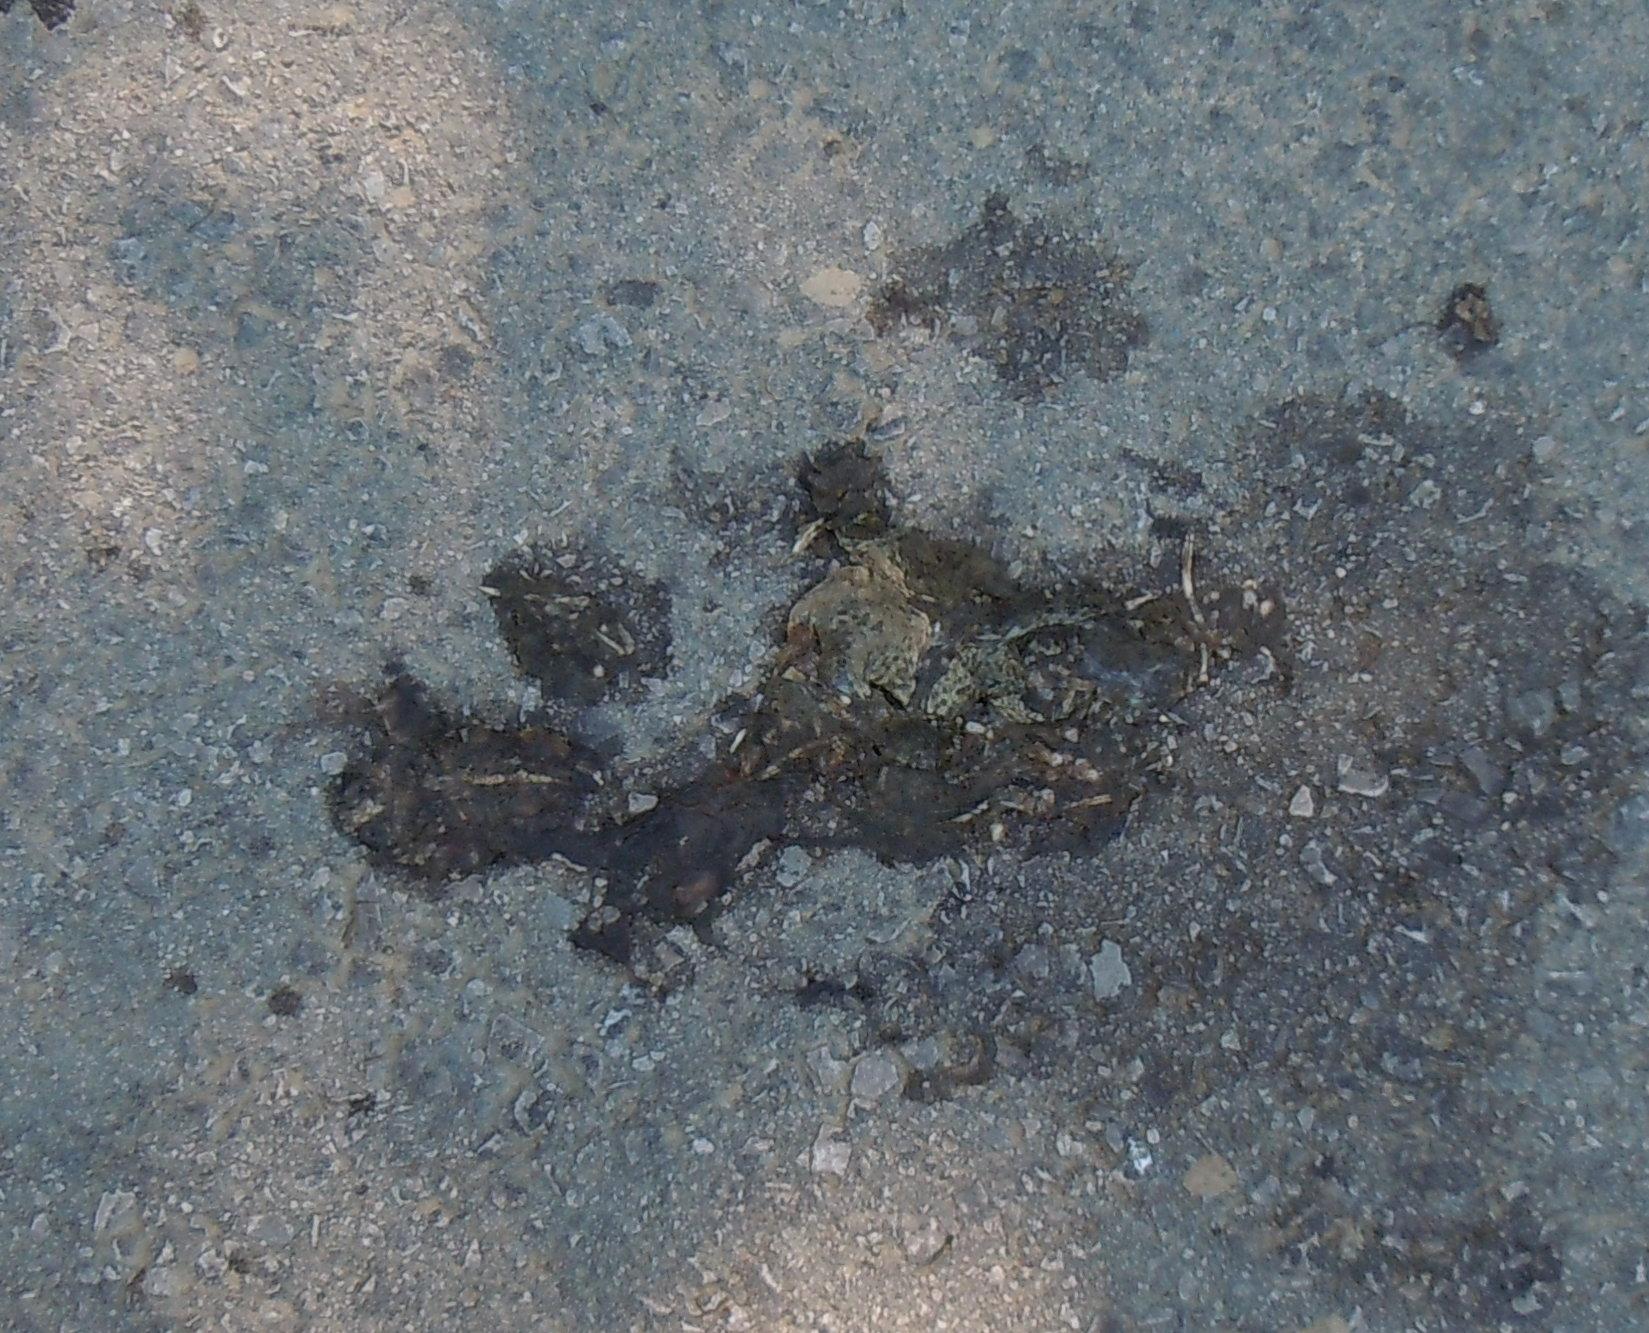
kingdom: Animalia
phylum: Chordata
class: Amphibia
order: Anura
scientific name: Anura
